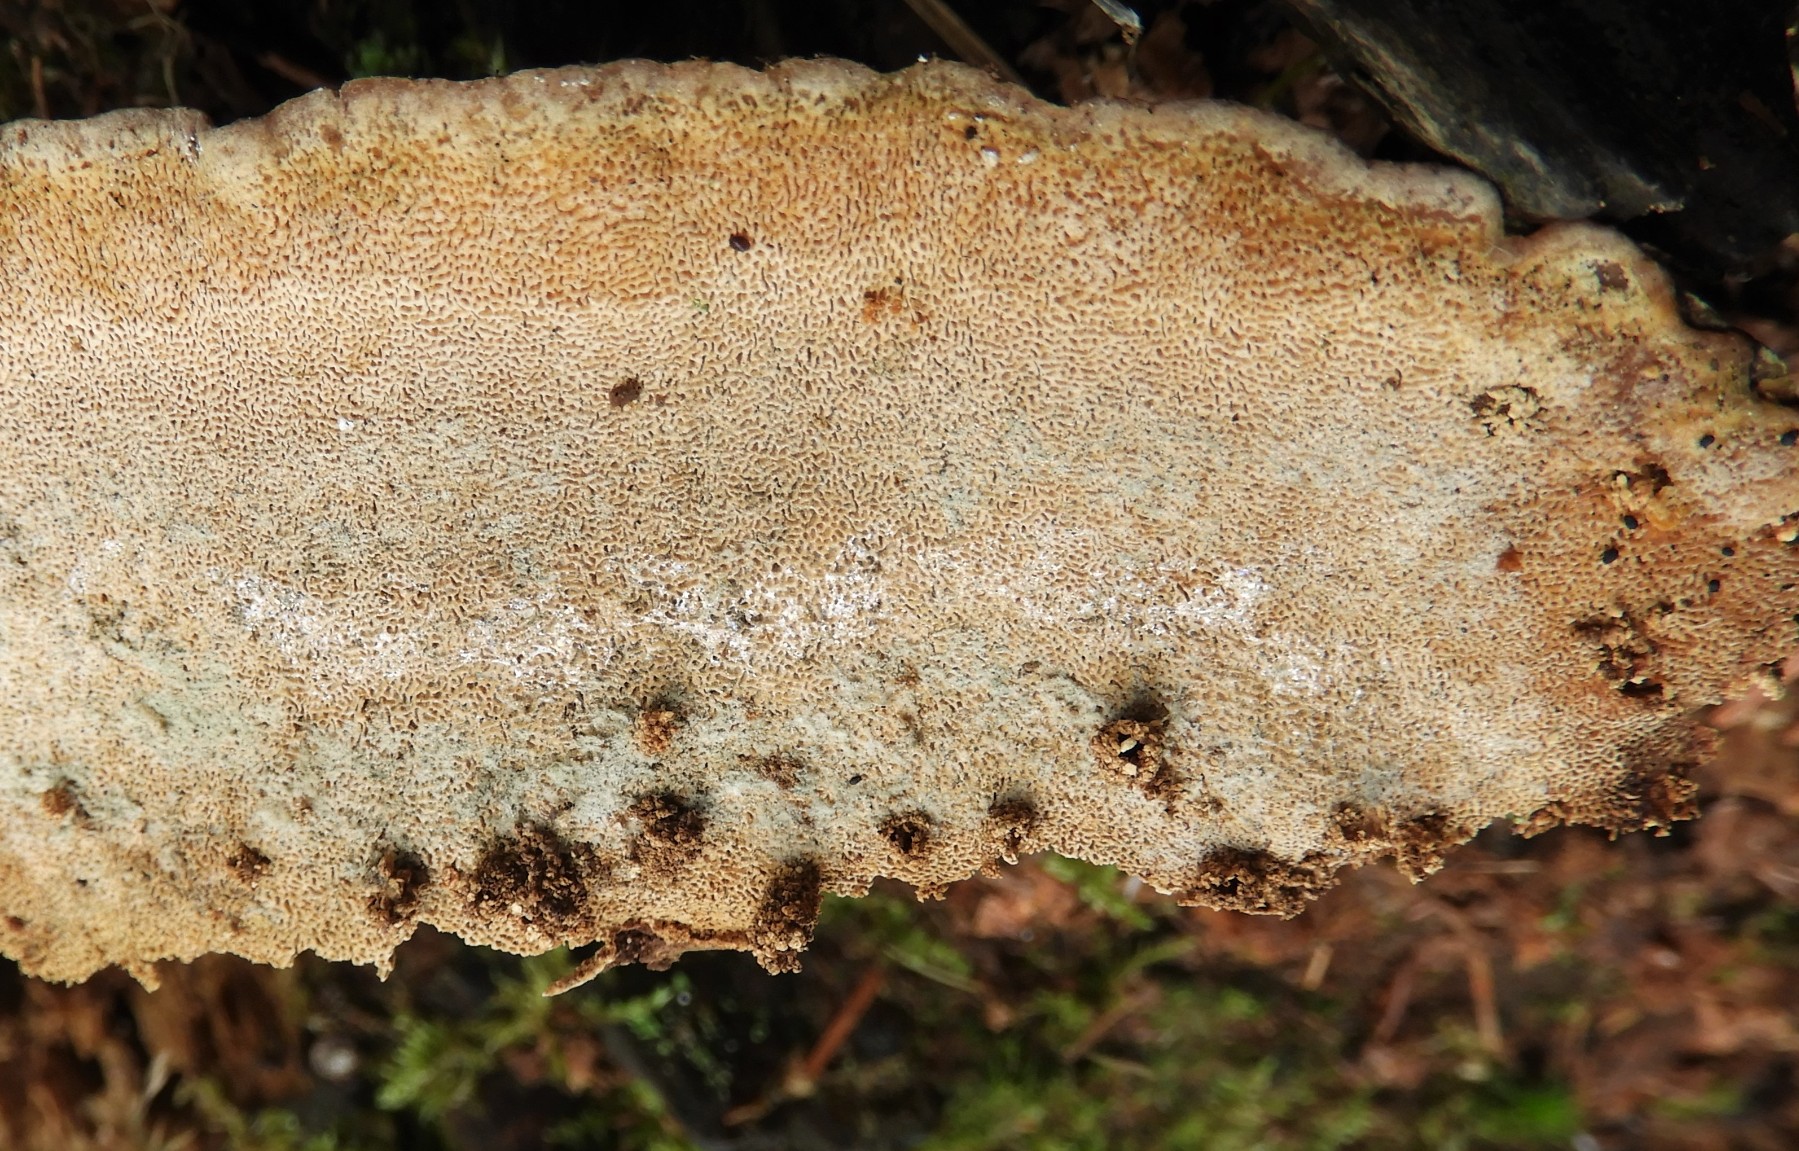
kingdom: Fungi
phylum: Basidiomycota
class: Agaricomycetes
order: Russulales
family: Bondarzewiaceae
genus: Heterobasidion
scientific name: Heterobasidion
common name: rodfordærver
